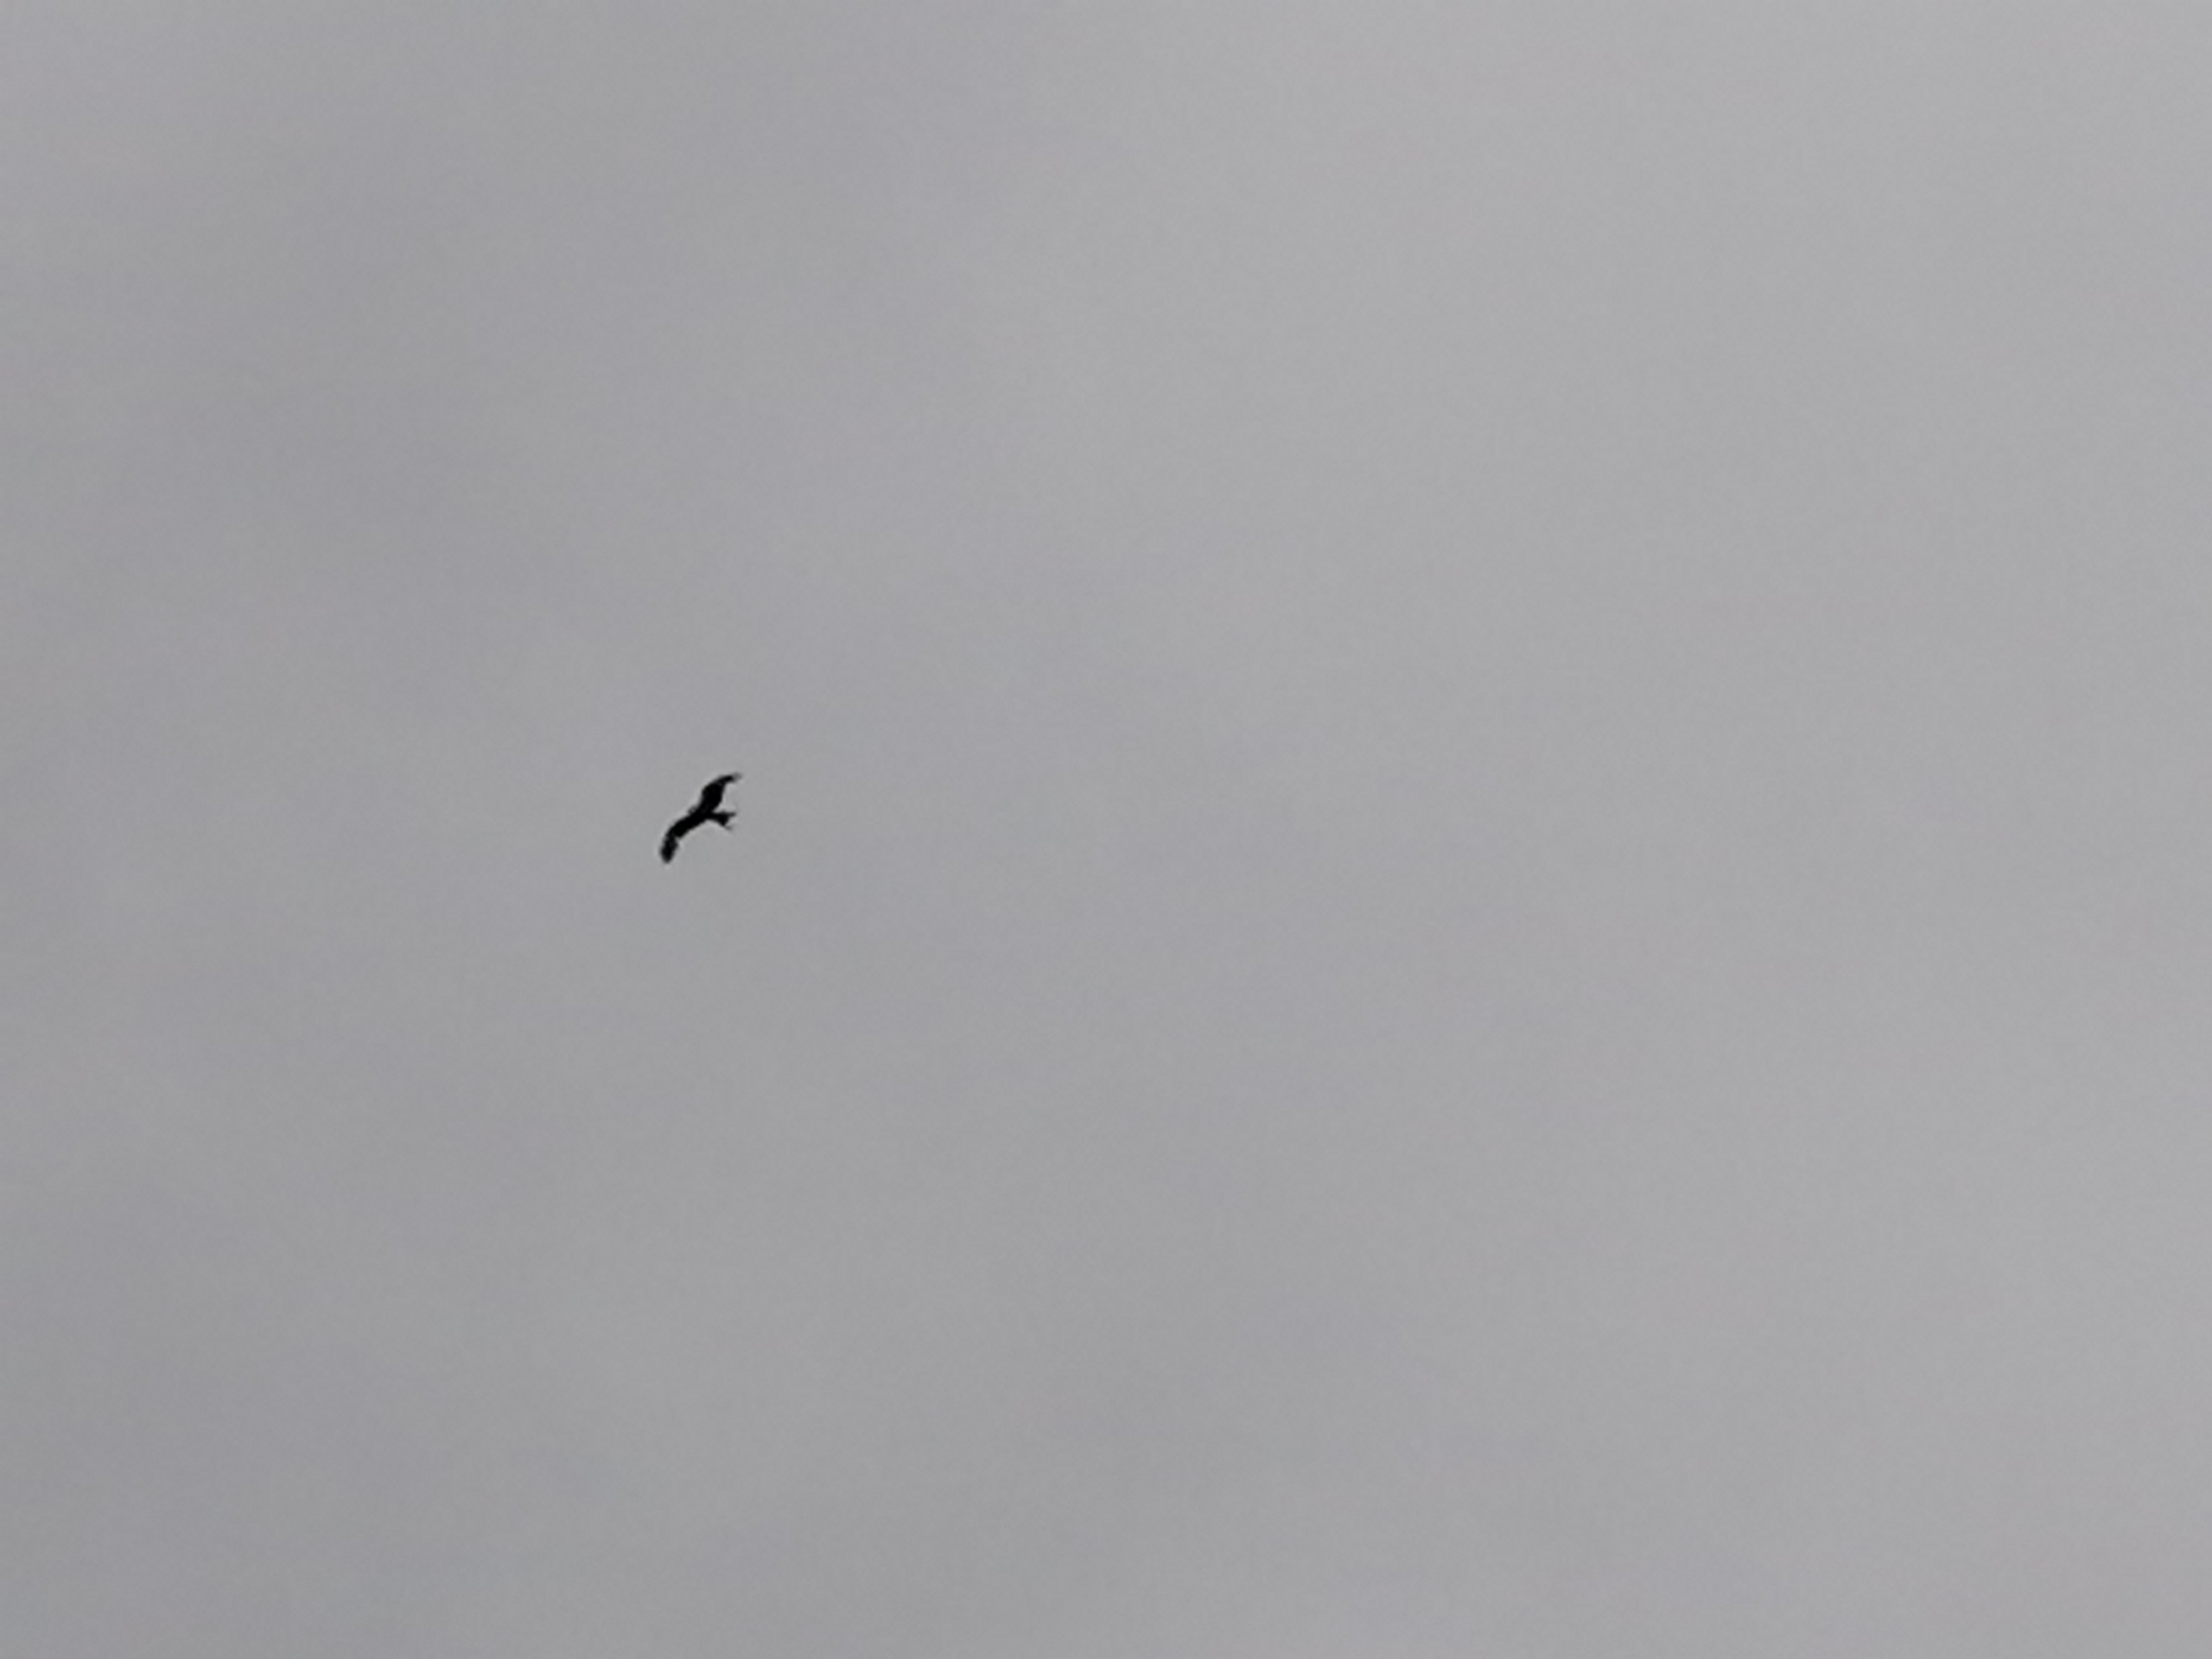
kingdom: Animalia
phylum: Chordata
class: Aves
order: Accipitriformes
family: Accipitridae
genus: Milvus
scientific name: Milvus milvus
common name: Rød glente
